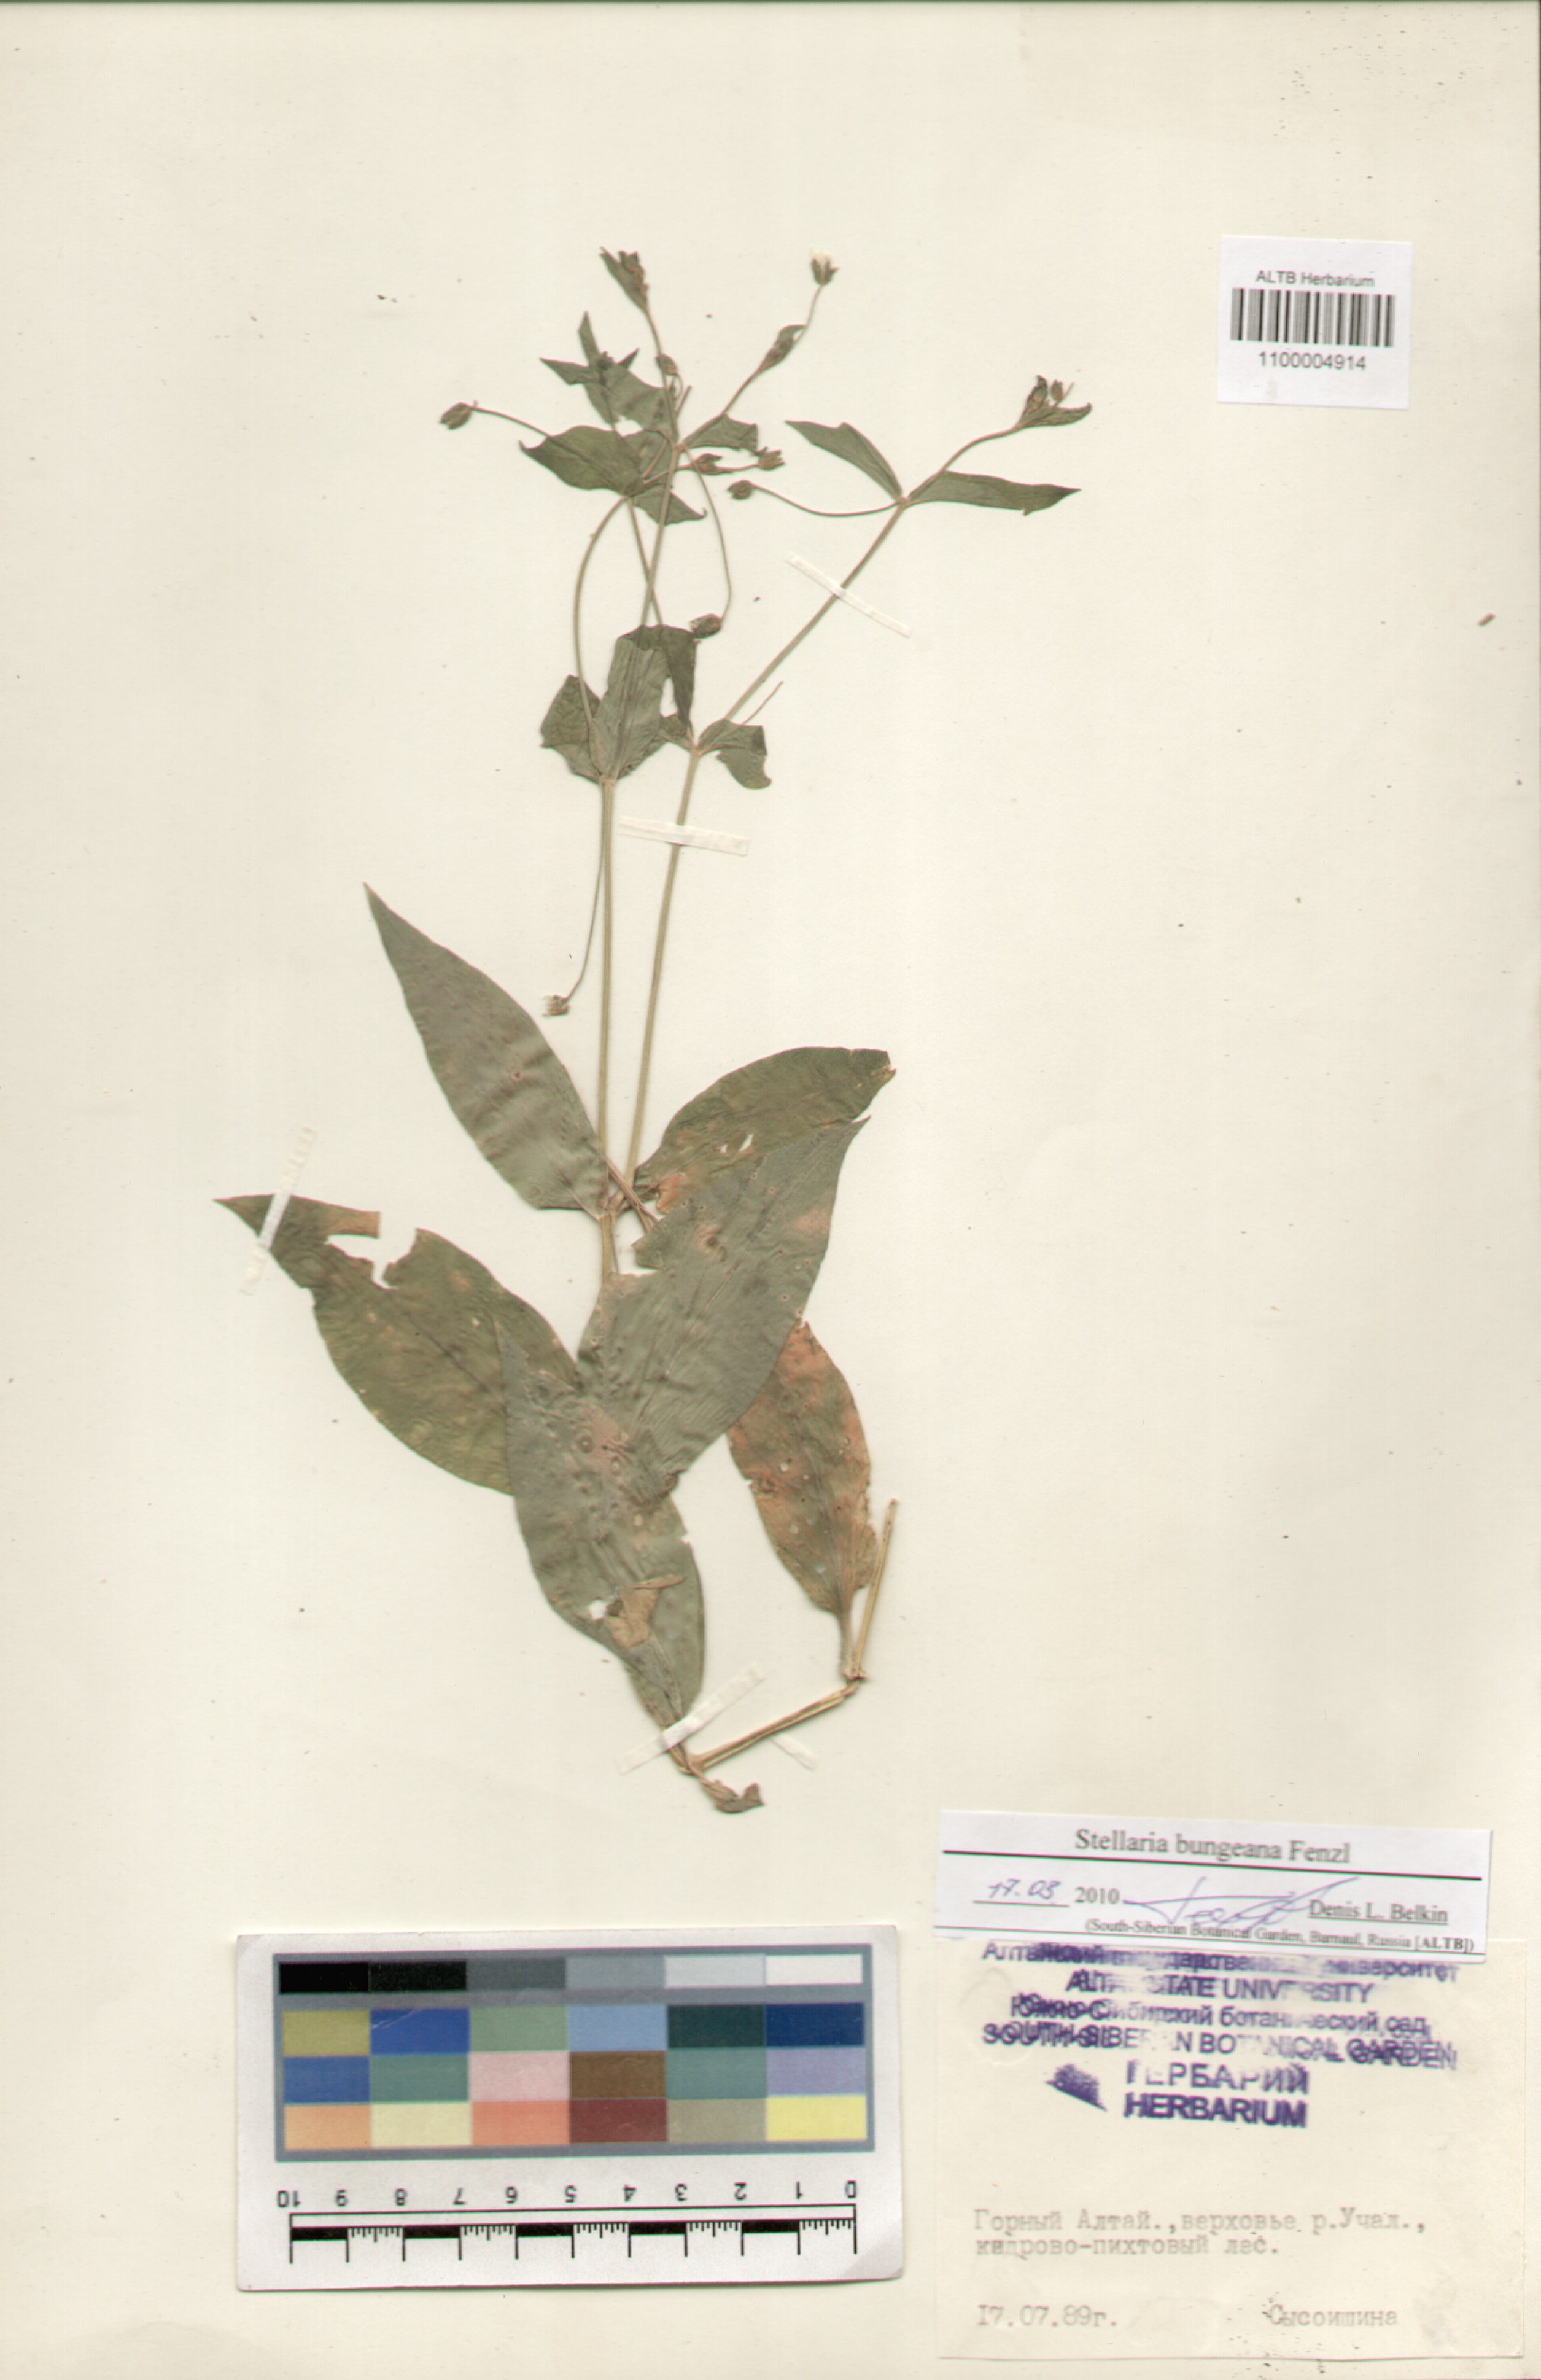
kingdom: Plantae
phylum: Tracheophyta
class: Magnoliopsida
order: Caryophyllales
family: Caryophyllaceae
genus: Stellaria
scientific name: Stellaria bungeana
